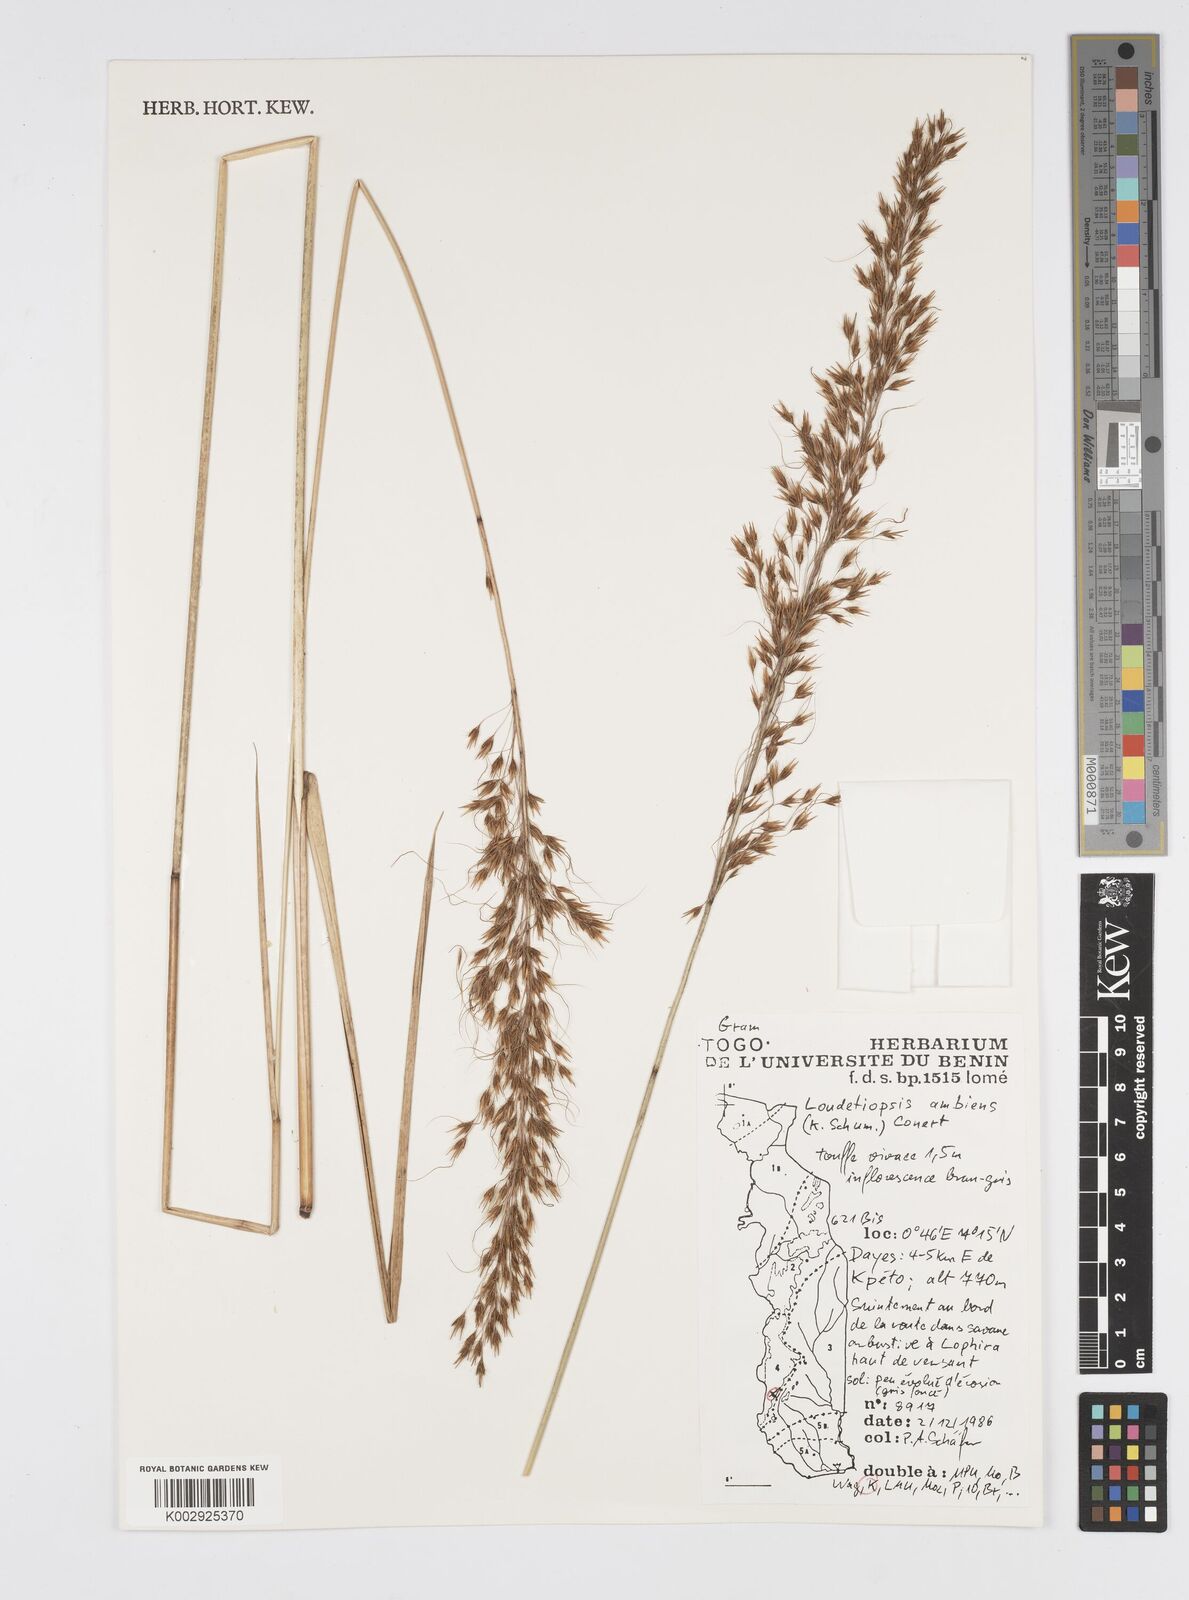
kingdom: Plantae
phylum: Tracheophyta
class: Liliopsida
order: Poales
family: Poaceae
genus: Loudetiopsis
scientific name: Loudetiopsis ambiens
